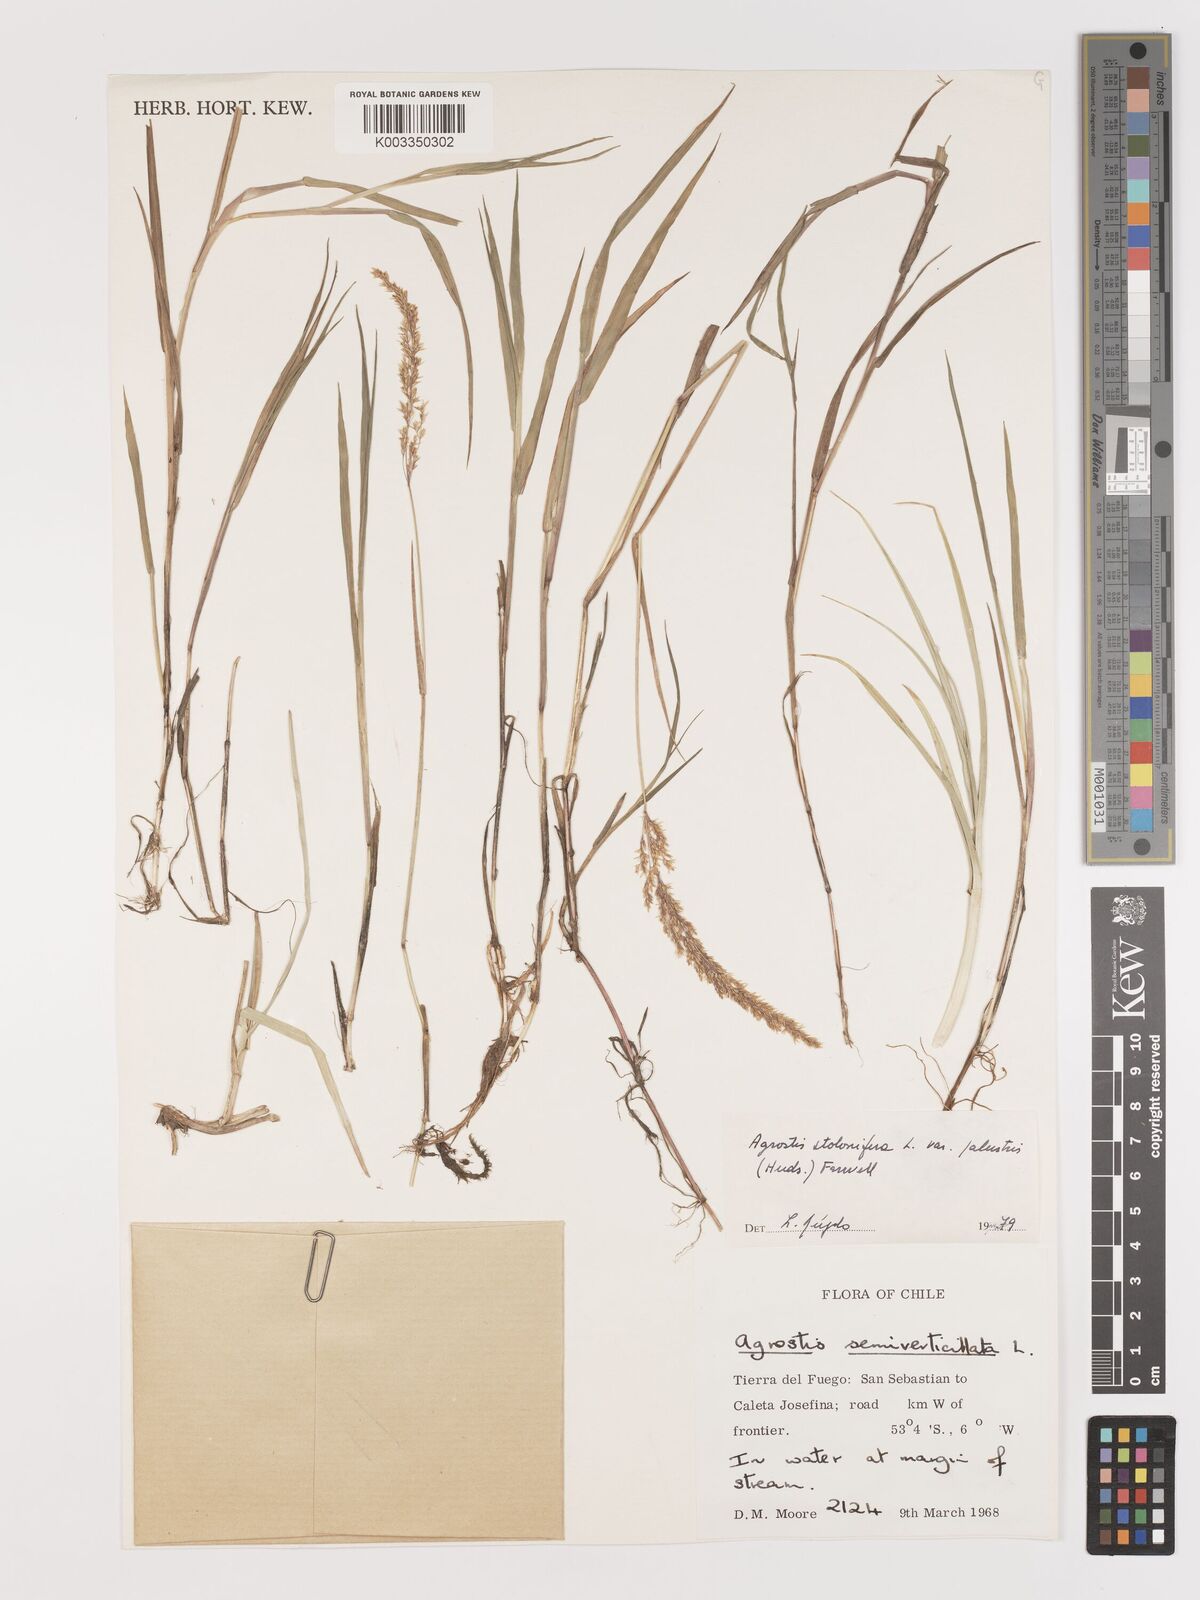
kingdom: Plantae
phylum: Tracheophyta
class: Liliopsida
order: Poales
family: Poaceae
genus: Agrostis
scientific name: Agrostis stolonifera
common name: Creeping bentgrass
